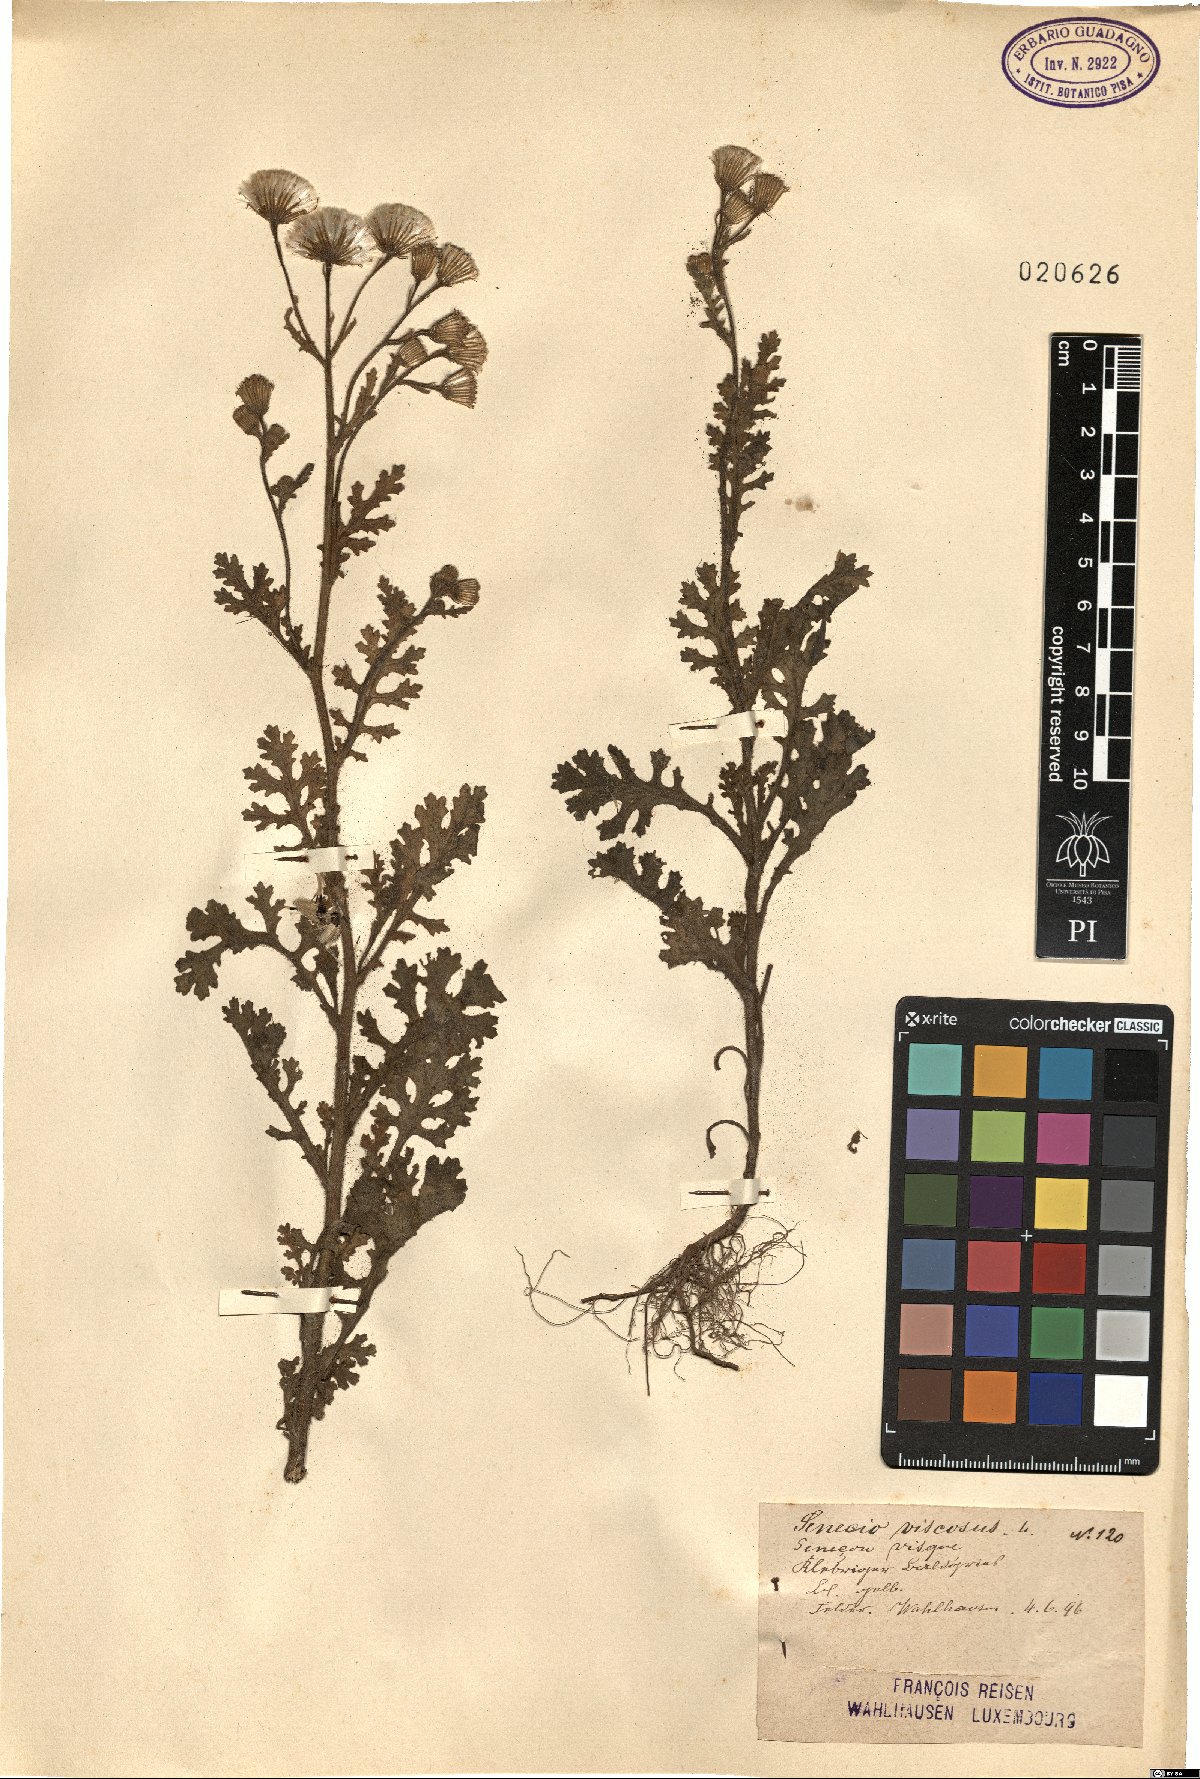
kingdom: Plantae
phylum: Tracheophyta
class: Magnoliopsida
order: Asterales
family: Asteraceae
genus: Senecio
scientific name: Senecio viscosus
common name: Sticky groundsel
